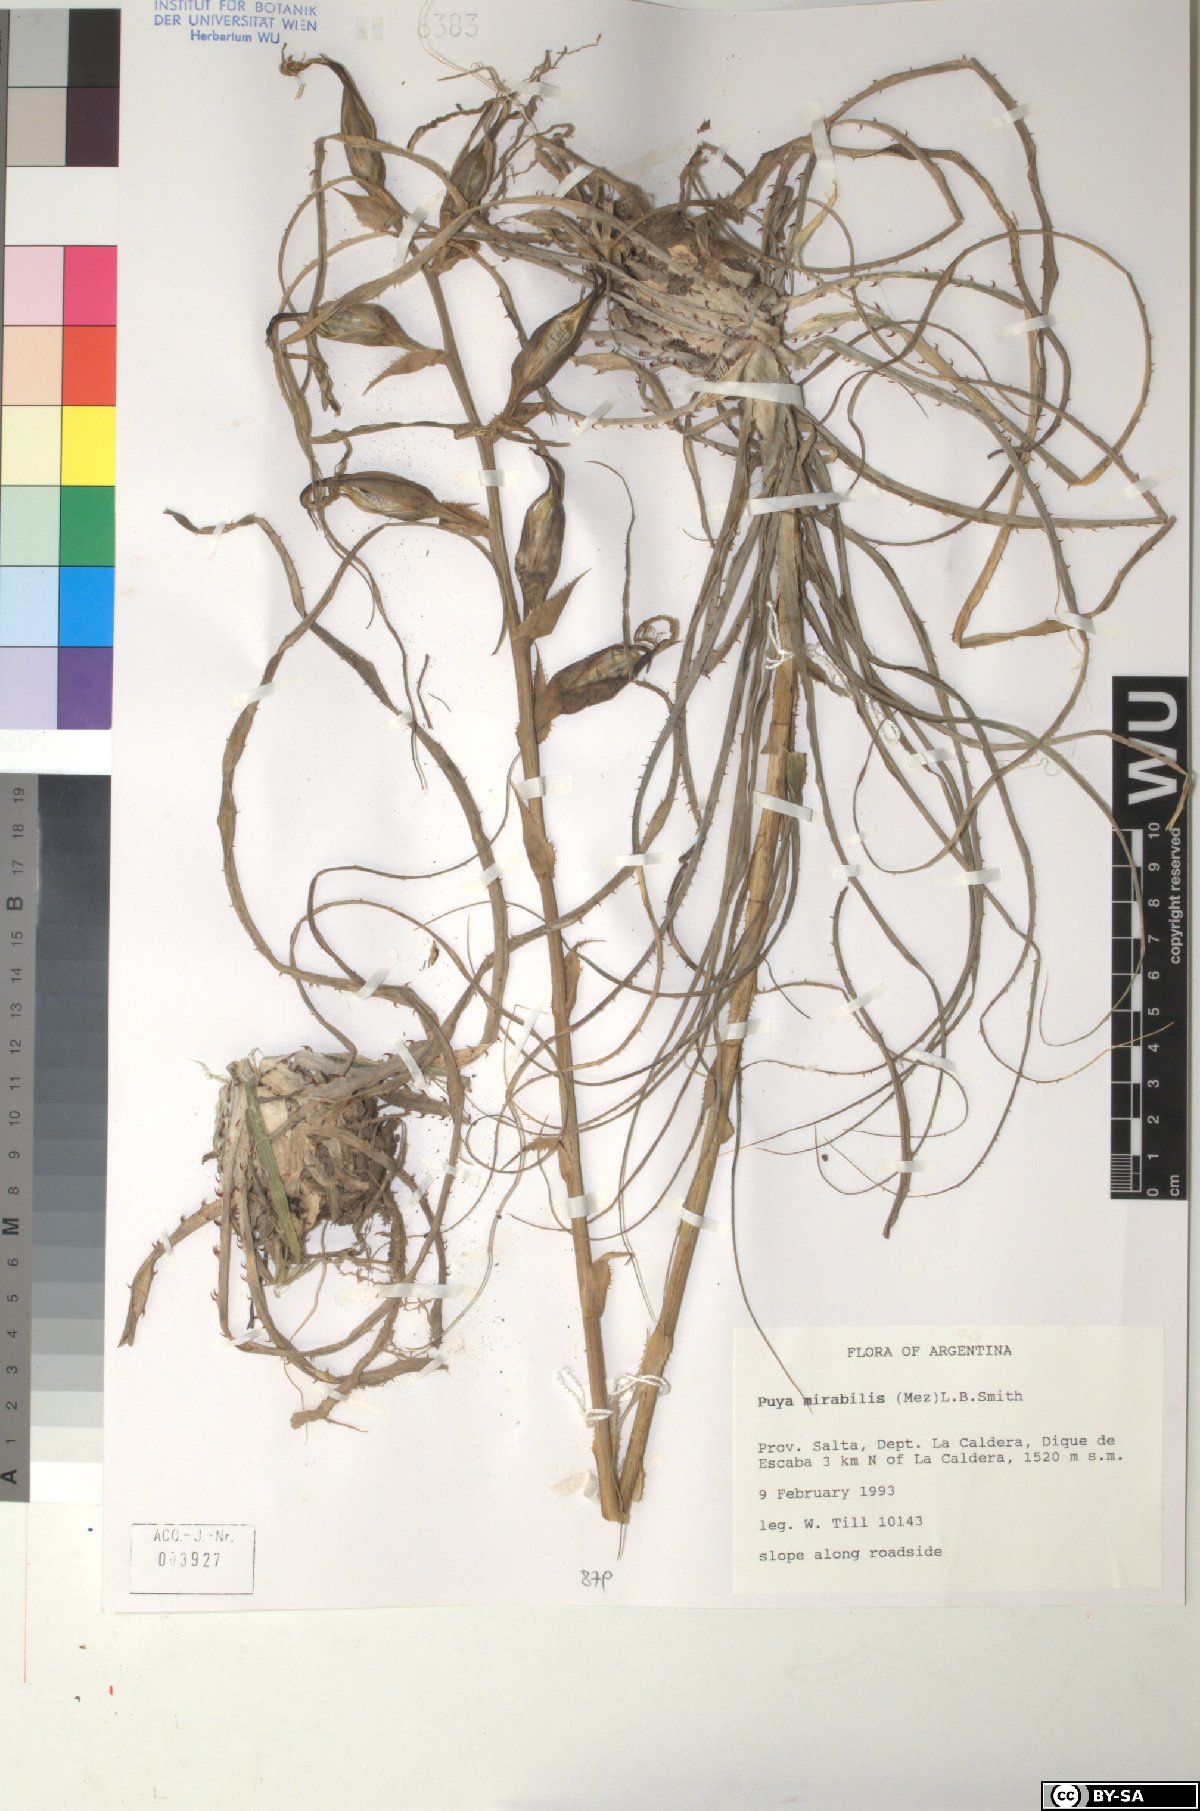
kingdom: Plantae
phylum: Tracheophyta
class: Liliopsida
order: Poales
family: Bromeliaceae
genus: Puya
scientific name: Puya mirabilis
